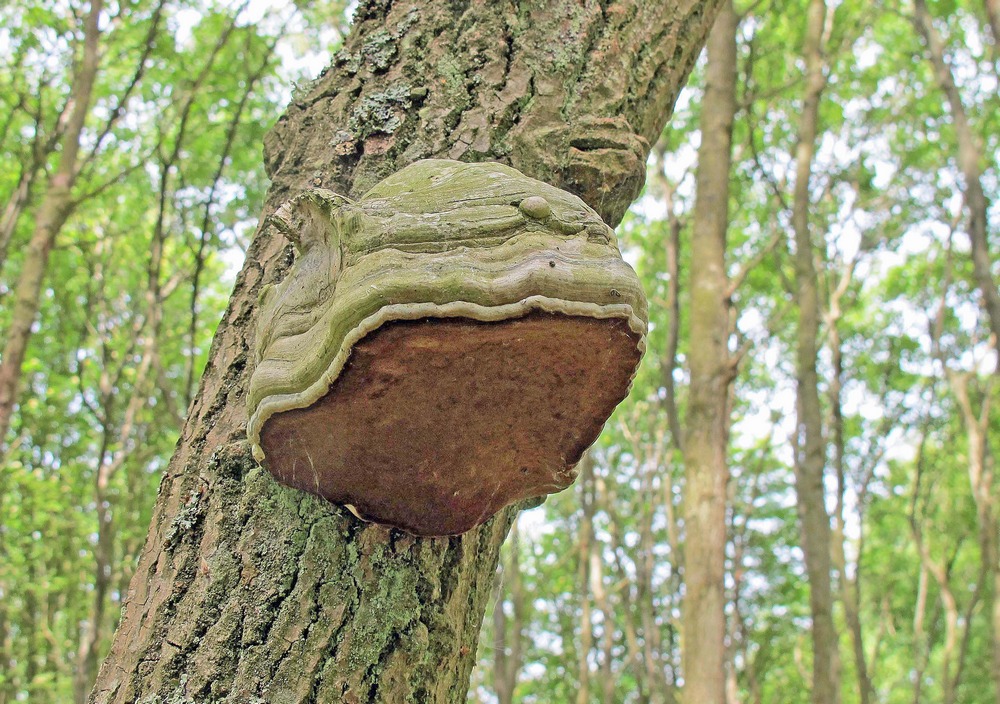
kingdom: Fungi
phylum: Basidiomycota
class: Agaricomycetes
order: Polyporales
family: Polyporaceae
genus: Fomes
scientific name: Fomes fomentarius
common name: tøndersvamp
